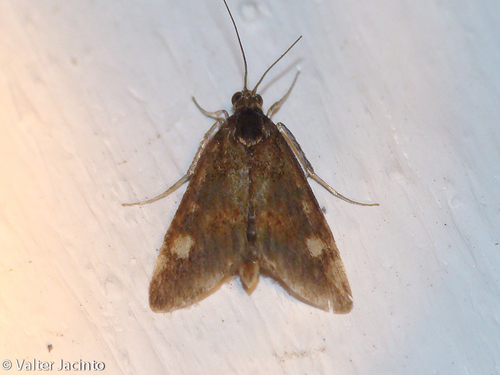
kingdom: Animalia
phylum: Arthropoda
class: Insecta
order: Lepidoptera
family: Crambidae
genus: Pyrausta
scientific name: Pyrausta aurata
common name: Small purple & gold
